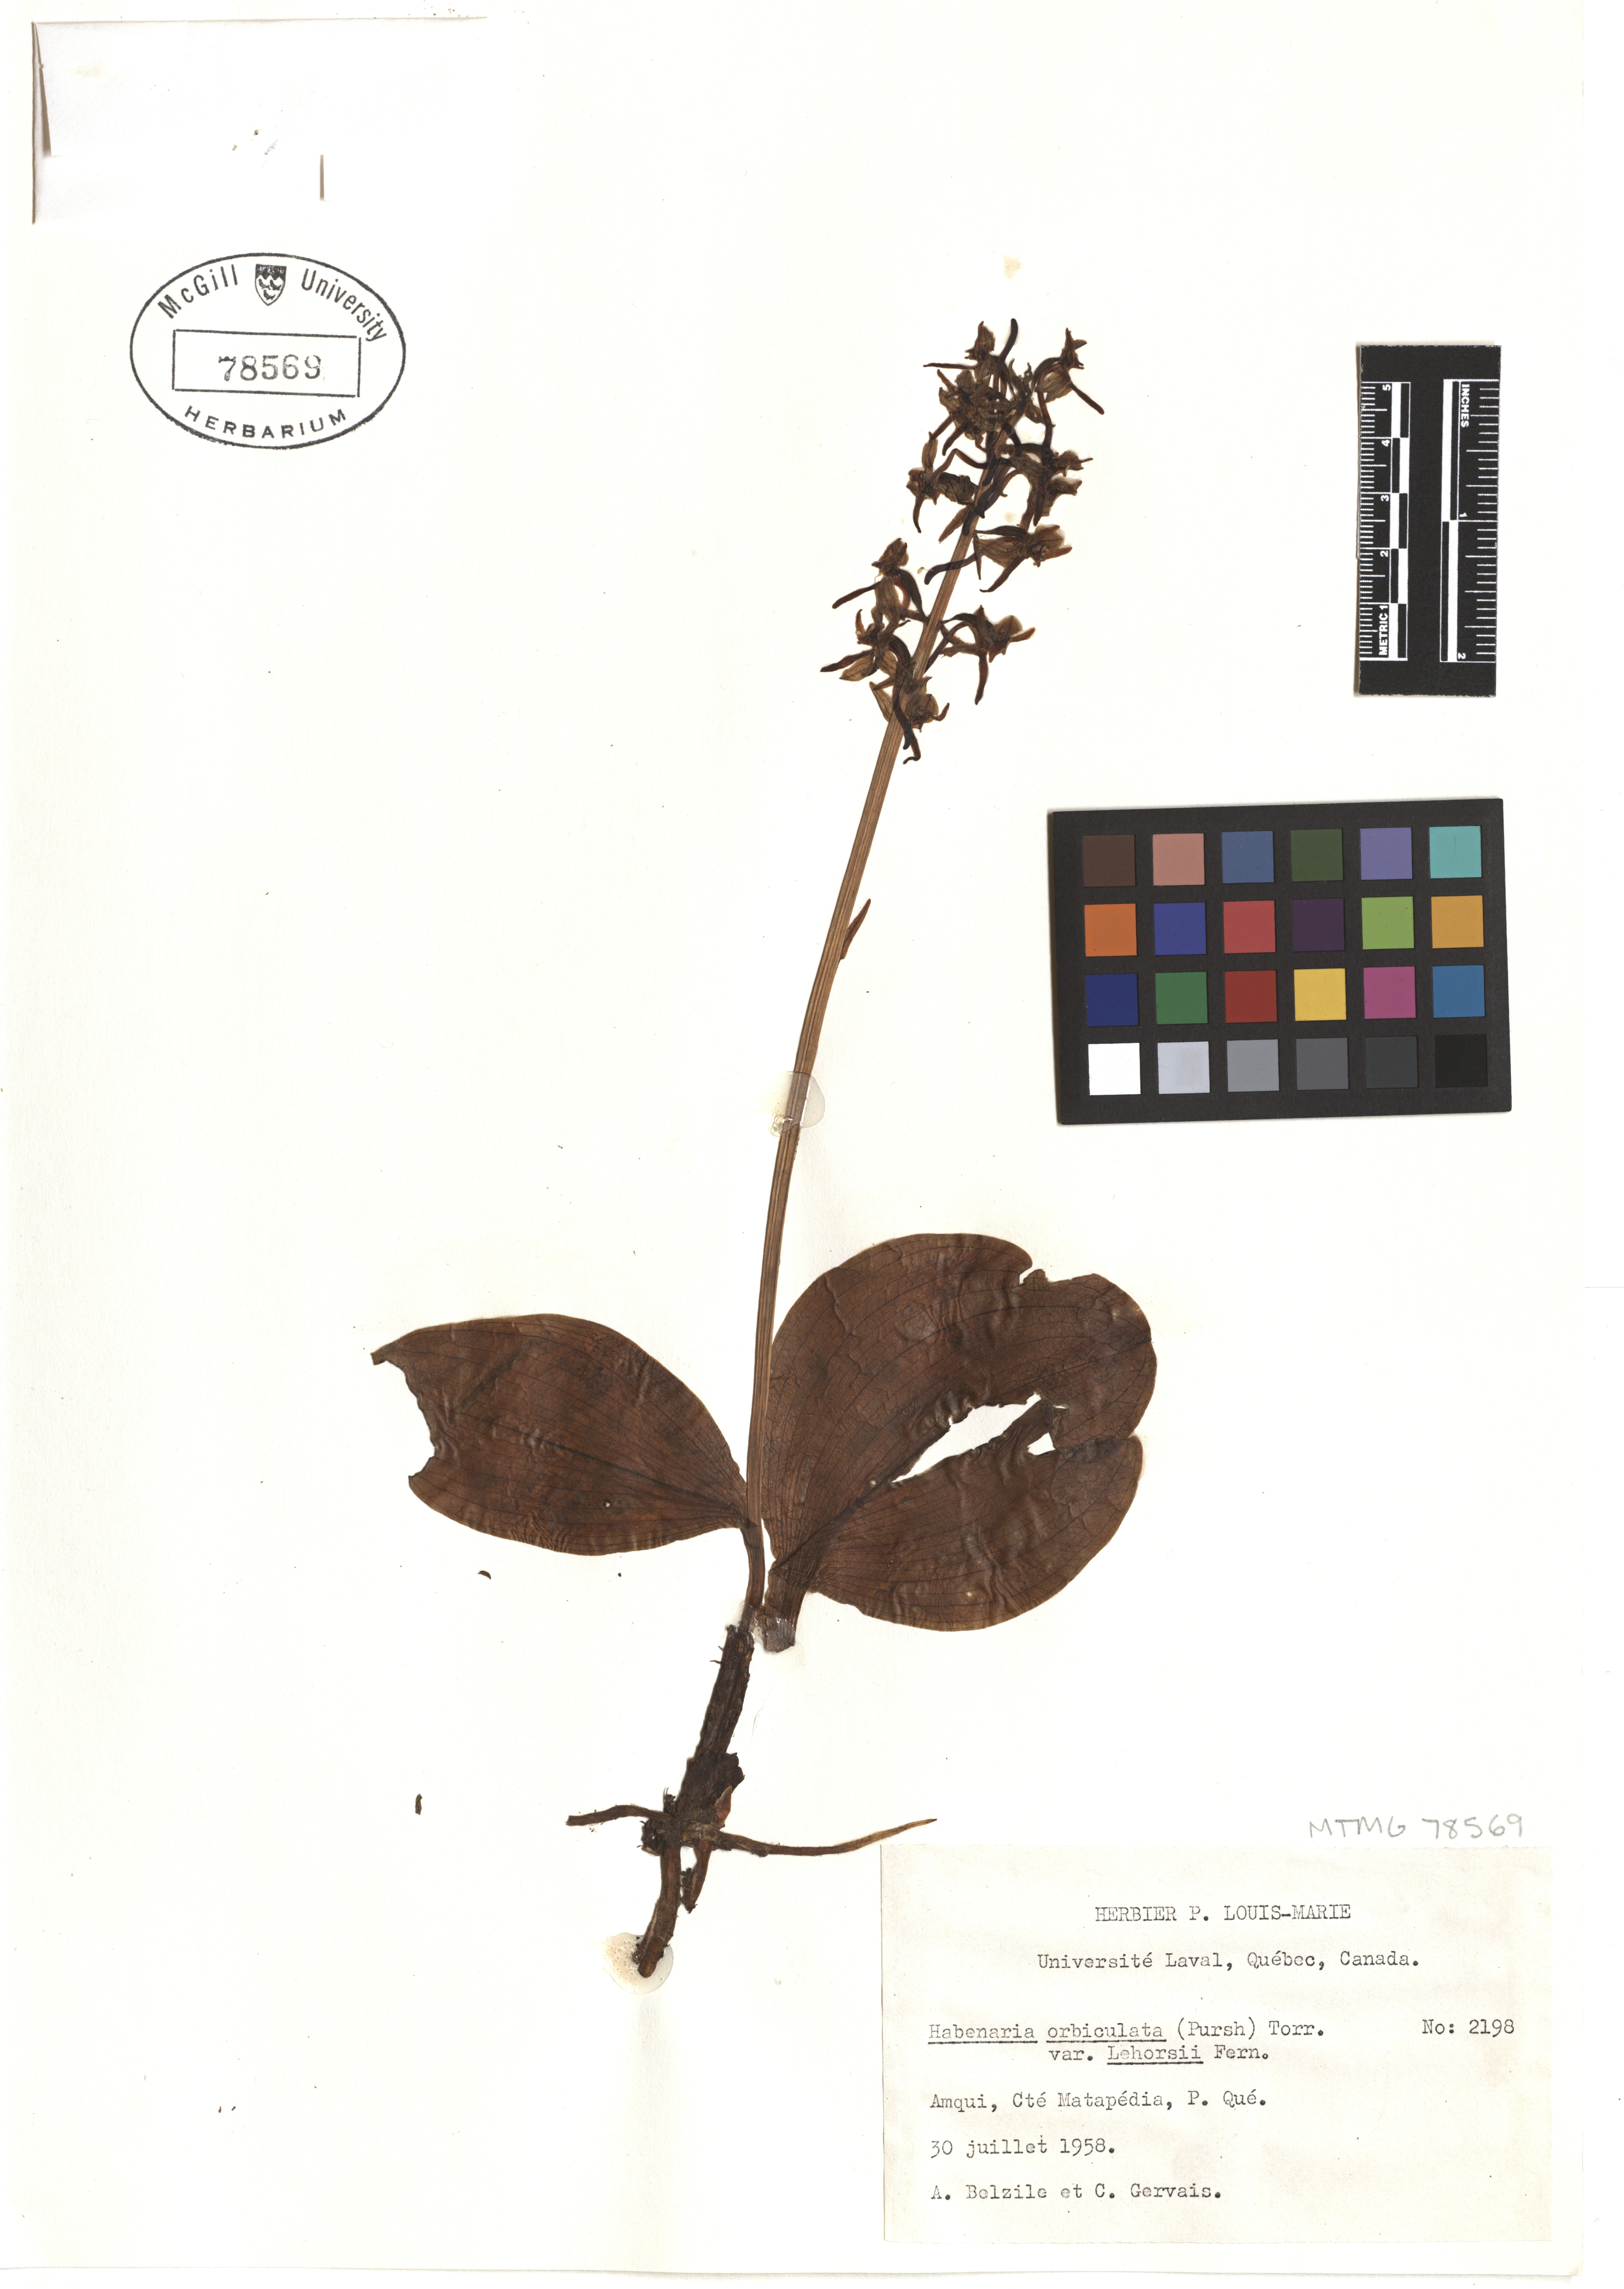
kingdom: Plantae
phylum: Tracheophyta
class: Liliopsida
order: Asparagales
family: Orchidaceae
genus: Platanthera
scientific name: Platanthera orbiculata
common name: Large round-leaved orchid
